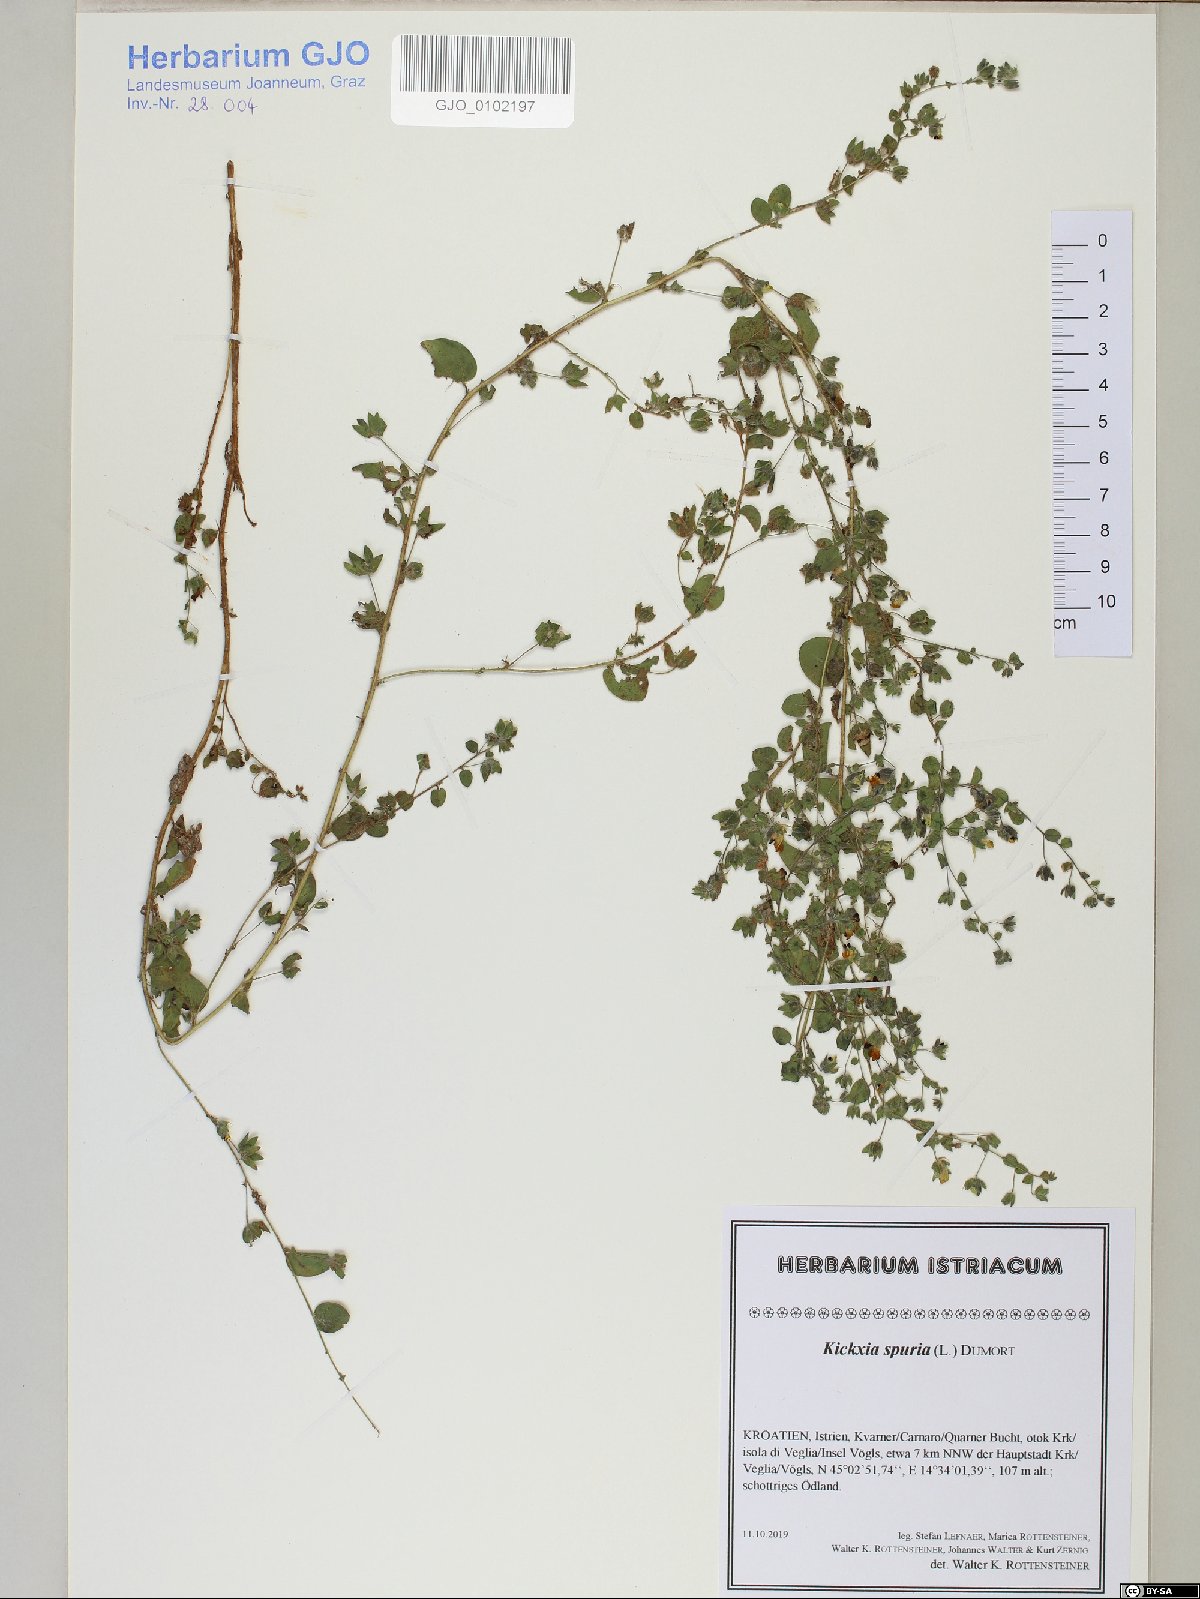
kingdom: Plantae
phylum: Tracheophyta
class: Magnoliopsida
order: Lamiales
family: Plantaginaceae
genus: Kickxia
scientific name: Kickxia spuria
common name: Round-leaved fluellen
